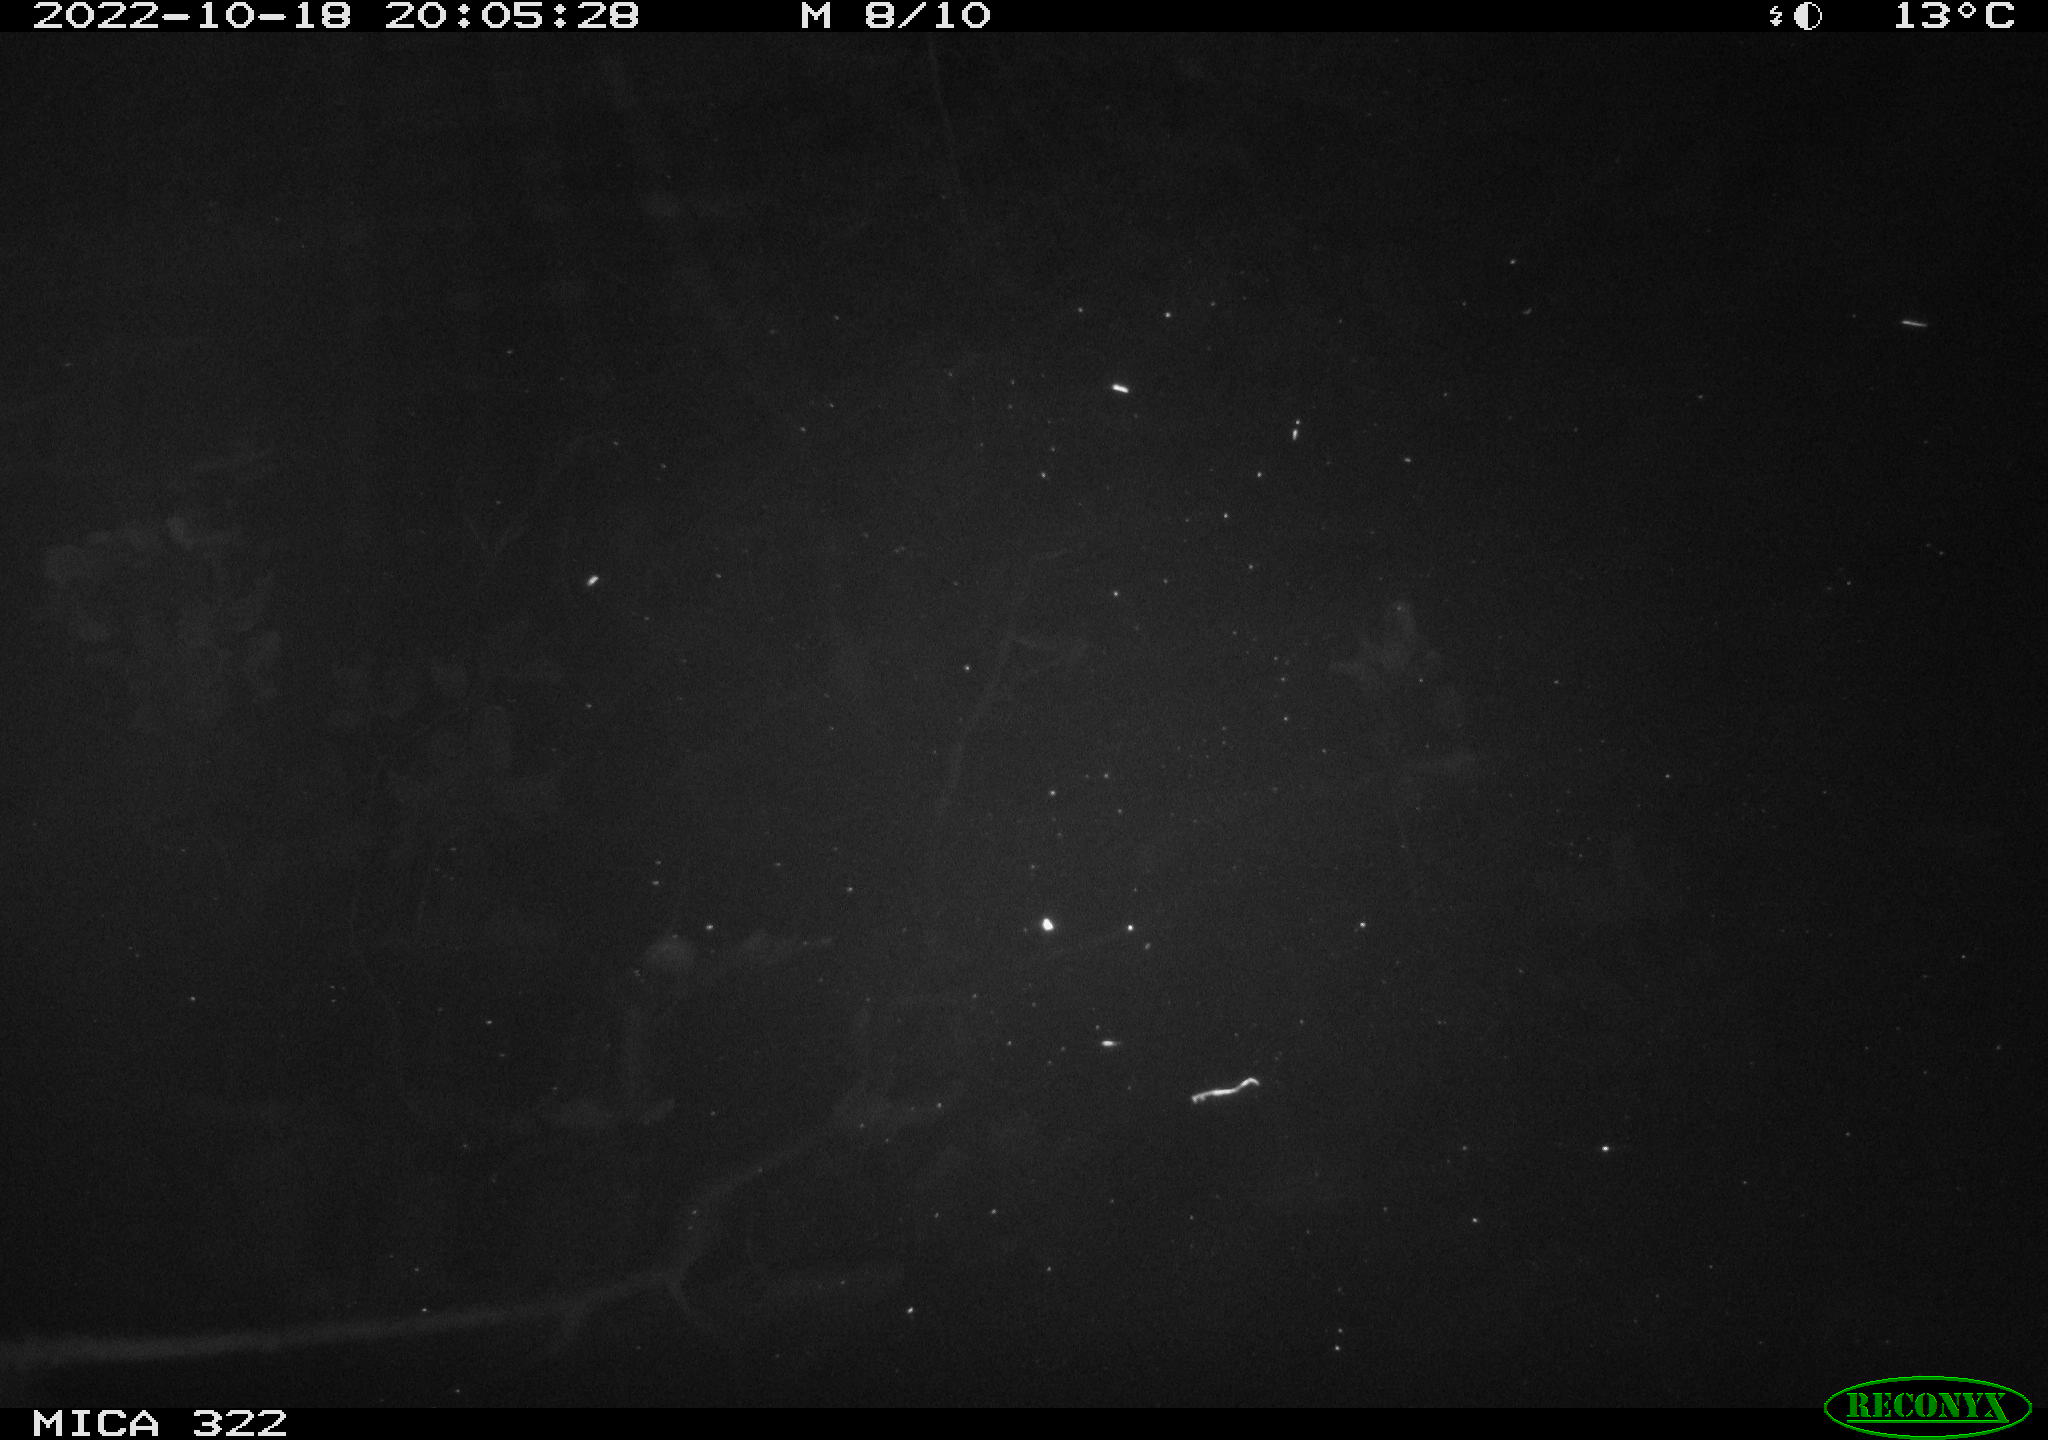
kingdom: Animalia
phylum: Chordata
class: Mammalia
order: Rodentia
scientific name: Rodentia
